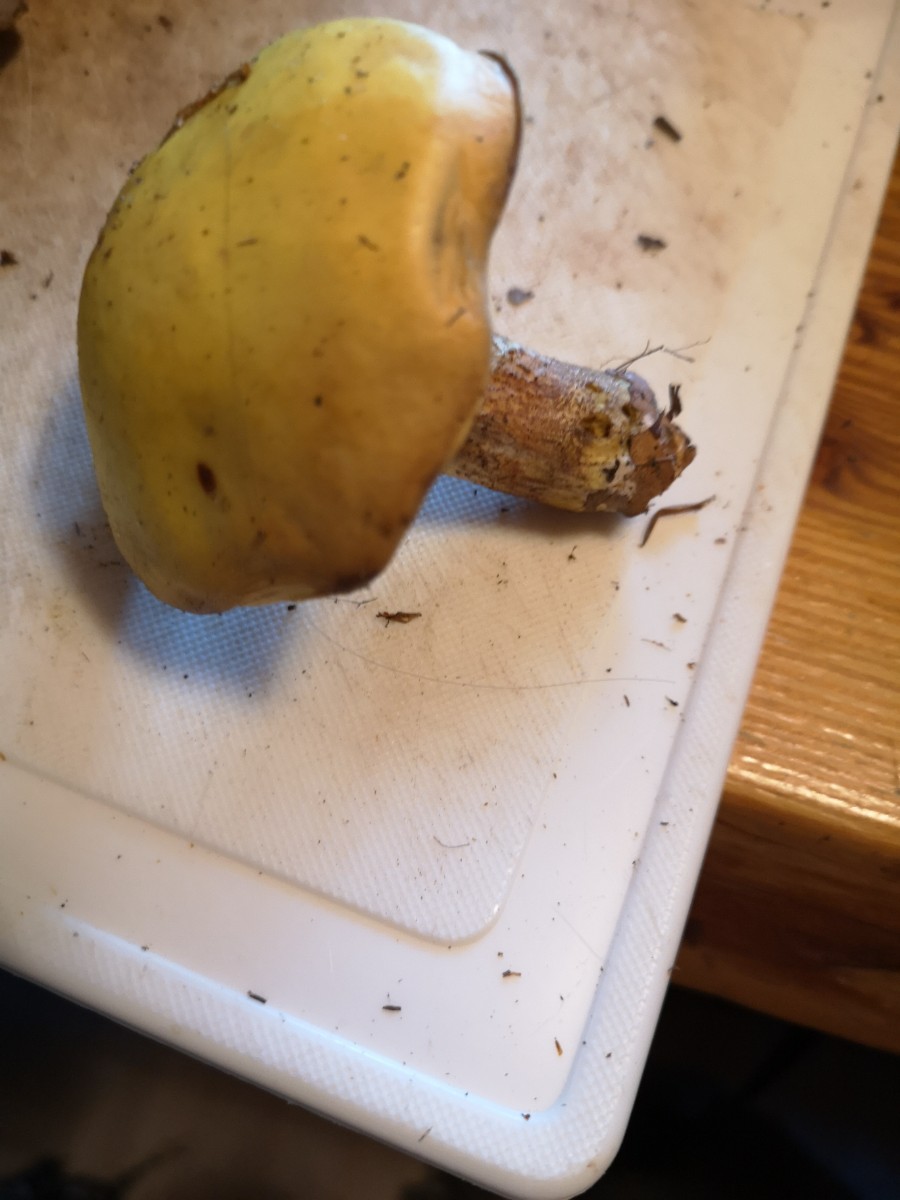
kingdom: Fungi
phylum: Basidiomycota
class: Agaricomycetes
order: Boletales
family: Suillaceae
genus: Suillus
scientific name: Suillus
